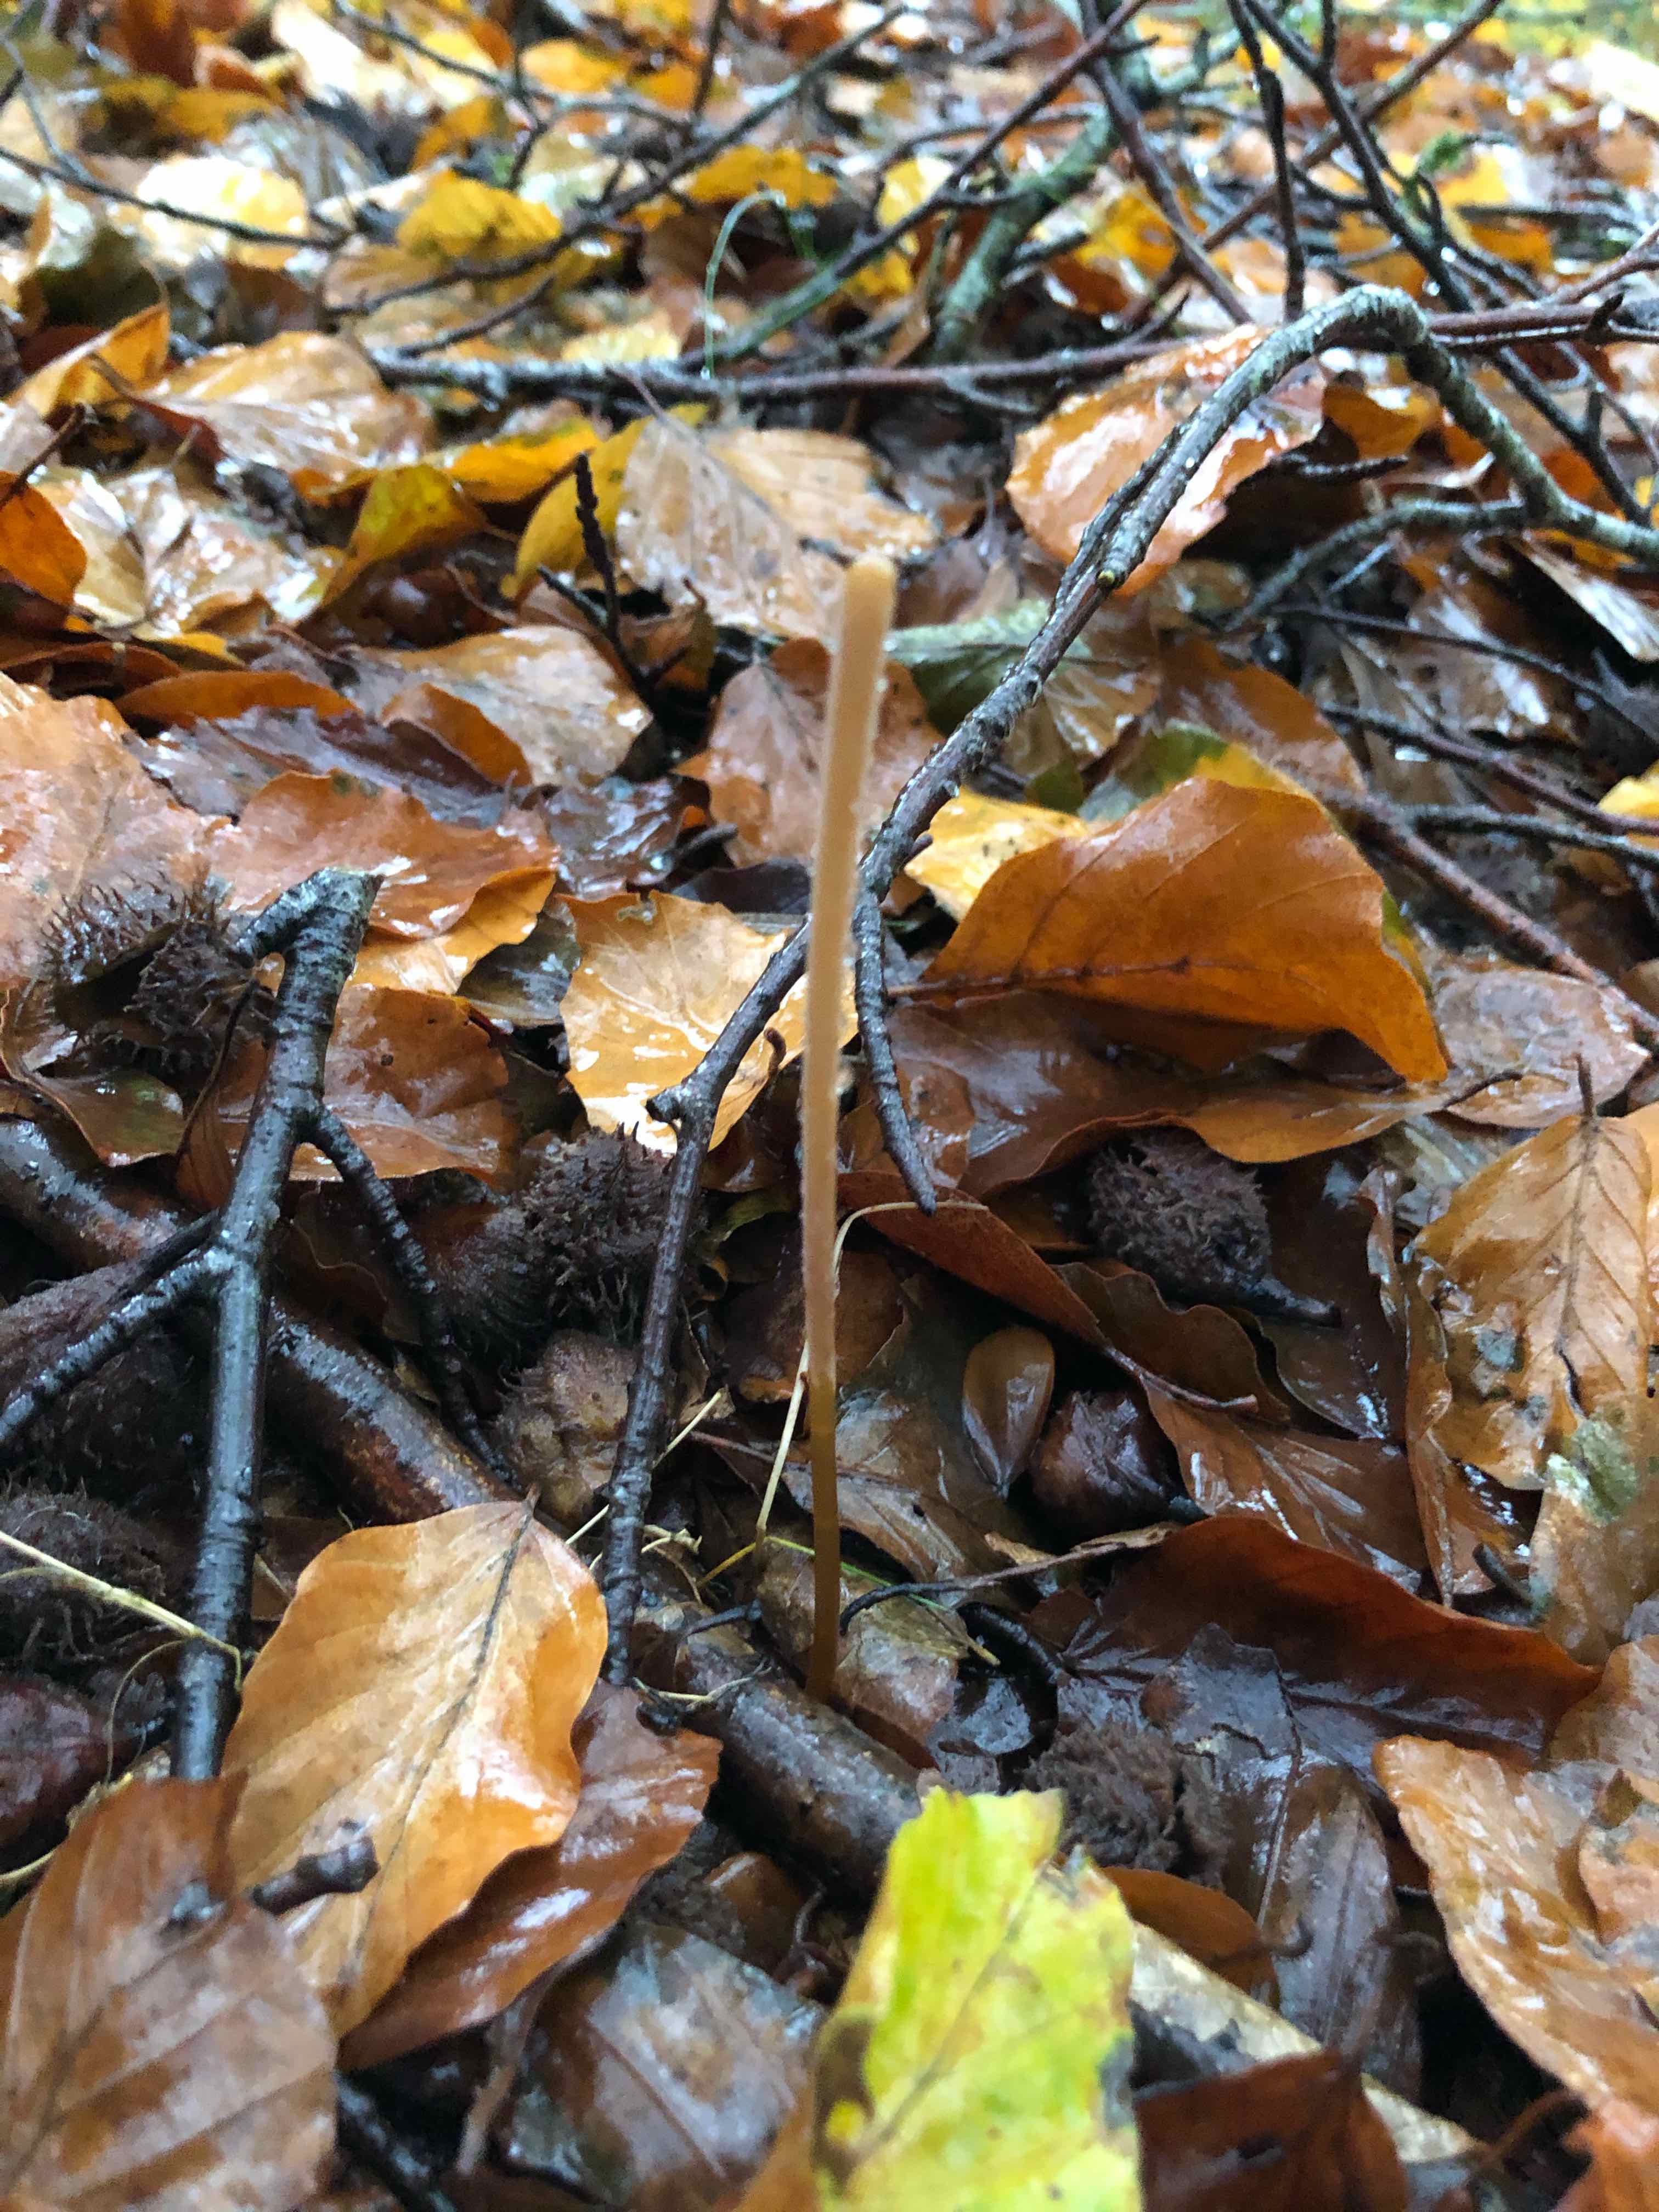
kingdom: Fungi
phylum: Basidiomycota
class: Agaricomycetes
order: Agaricales
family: Typhulaceae
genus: Typhula
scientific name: Typhula fistulosa
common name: pibet rørkølle
